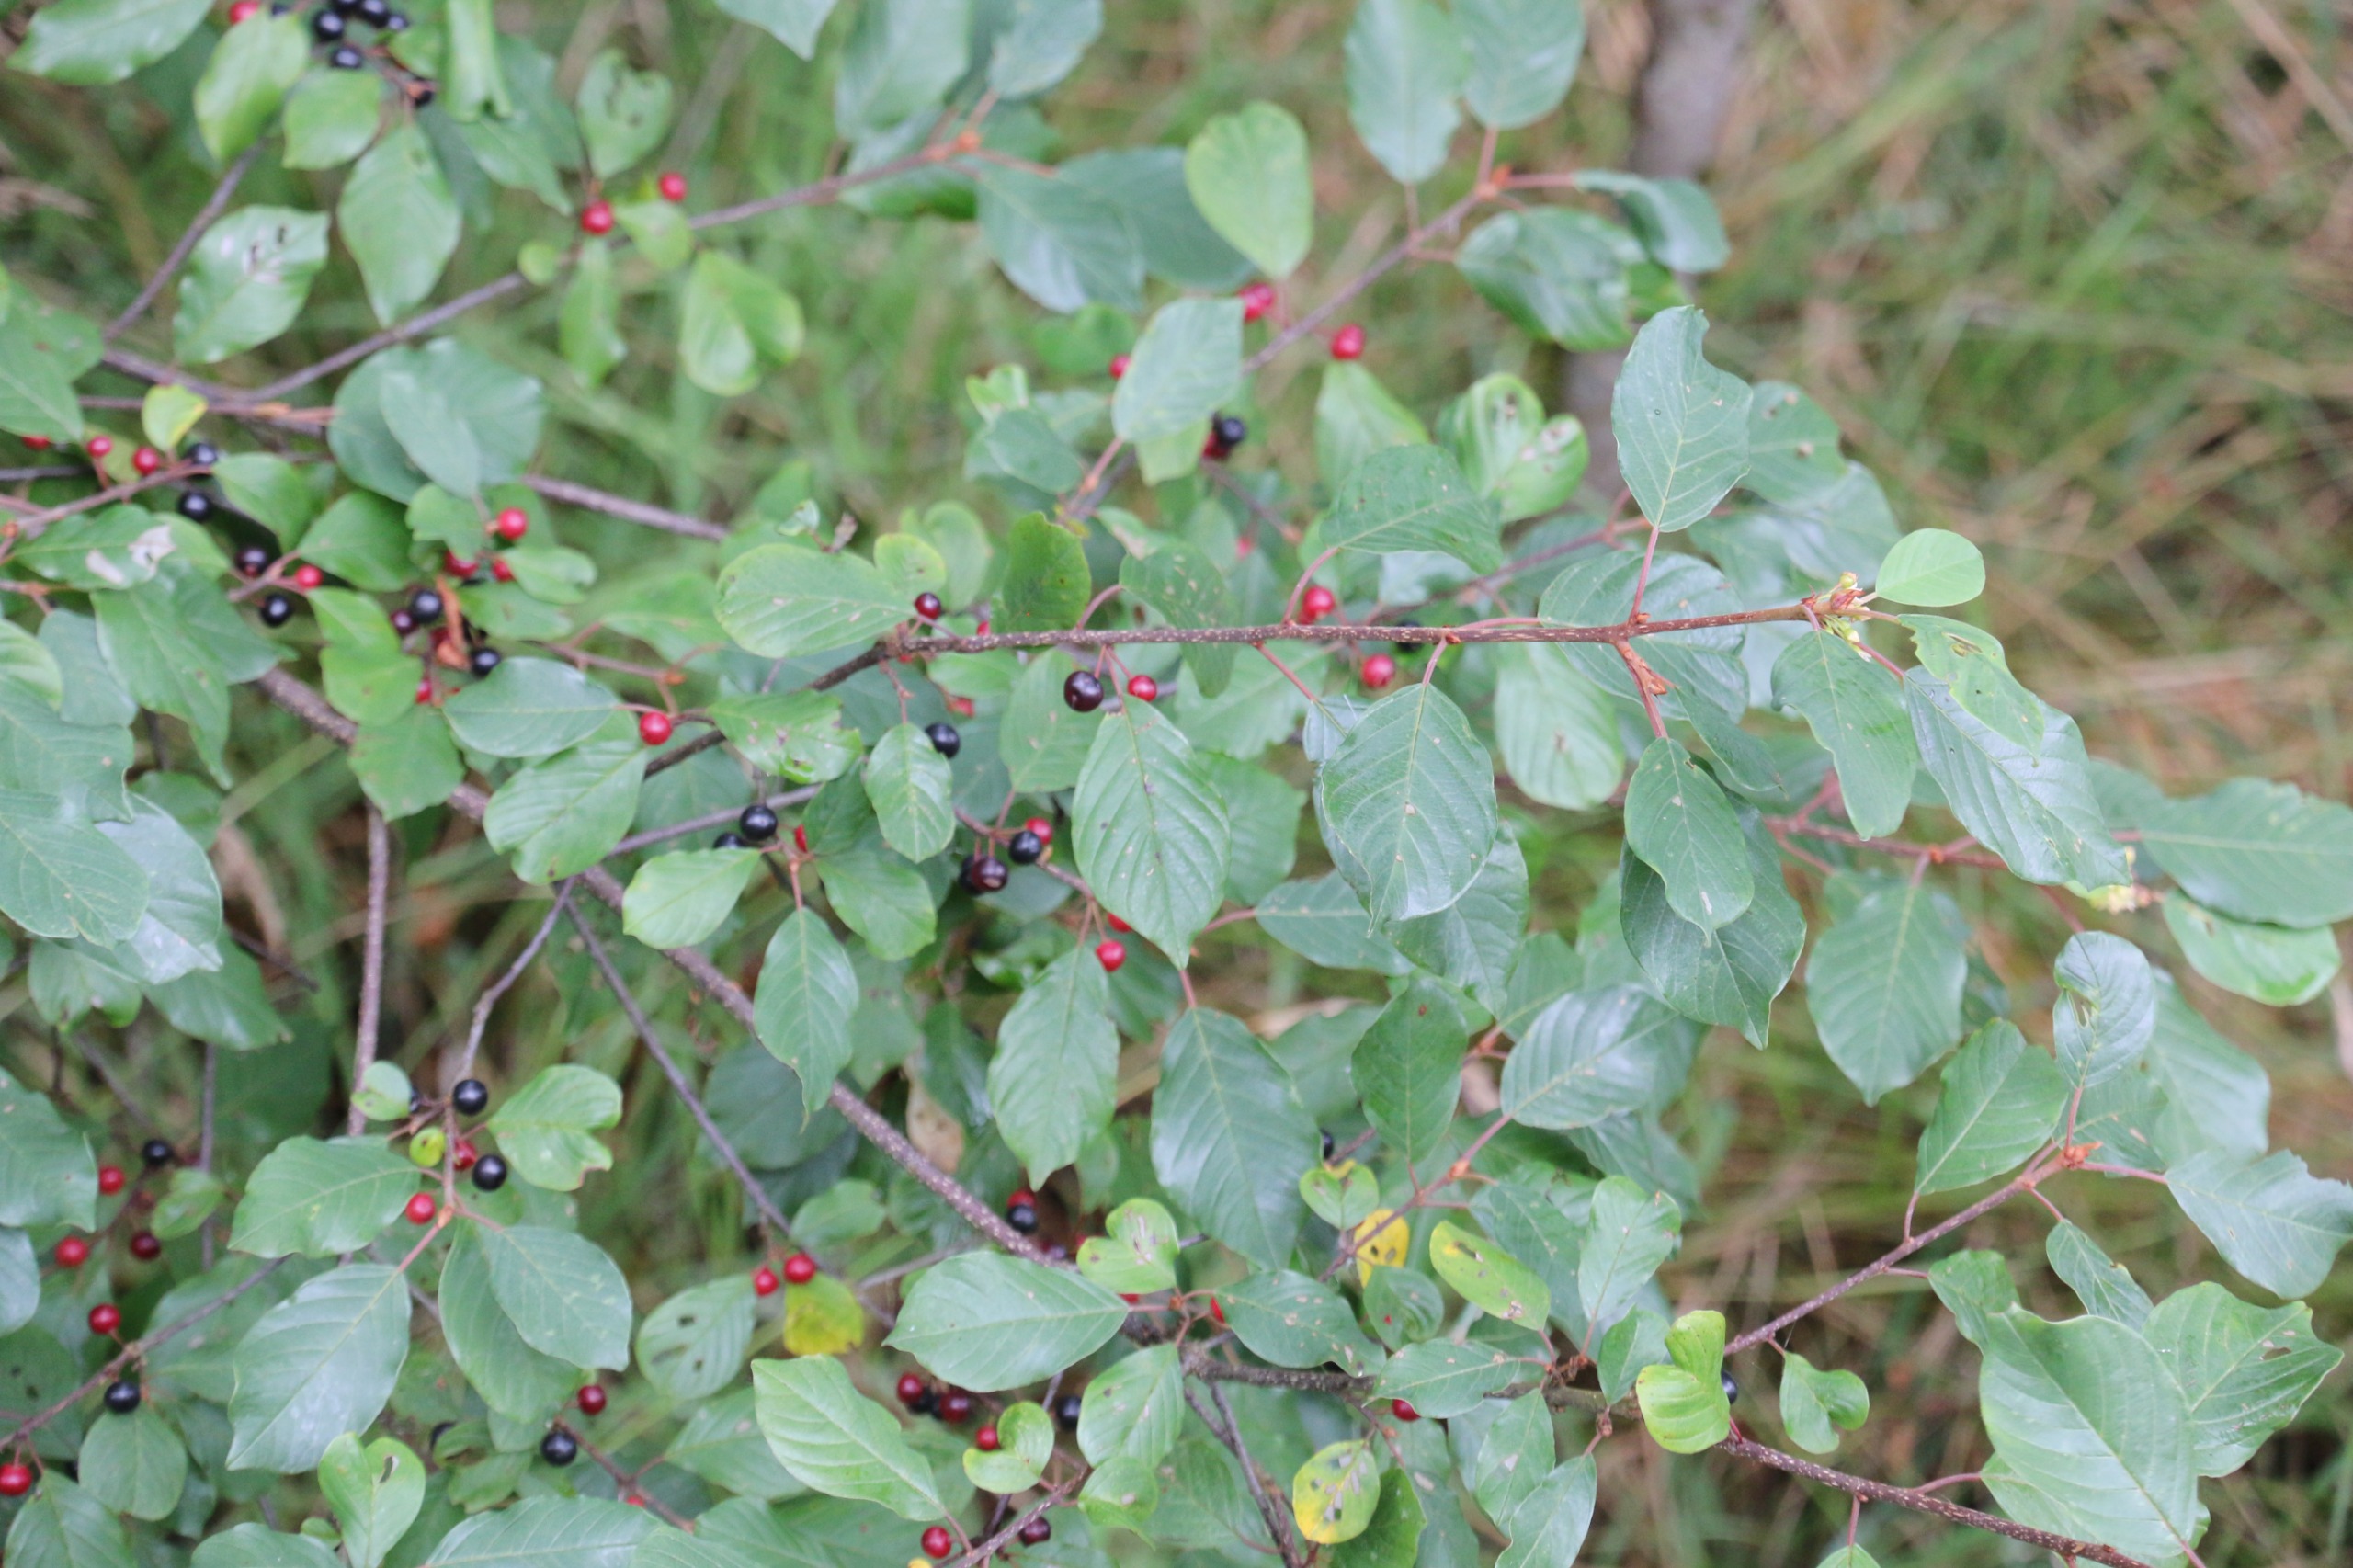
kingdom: Plantae
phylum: Tracheophyta
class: Magnoliopsida
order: Rosales
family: Rhamnaceae
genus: Frangula
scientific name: Frangula alnus
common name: Tørst
